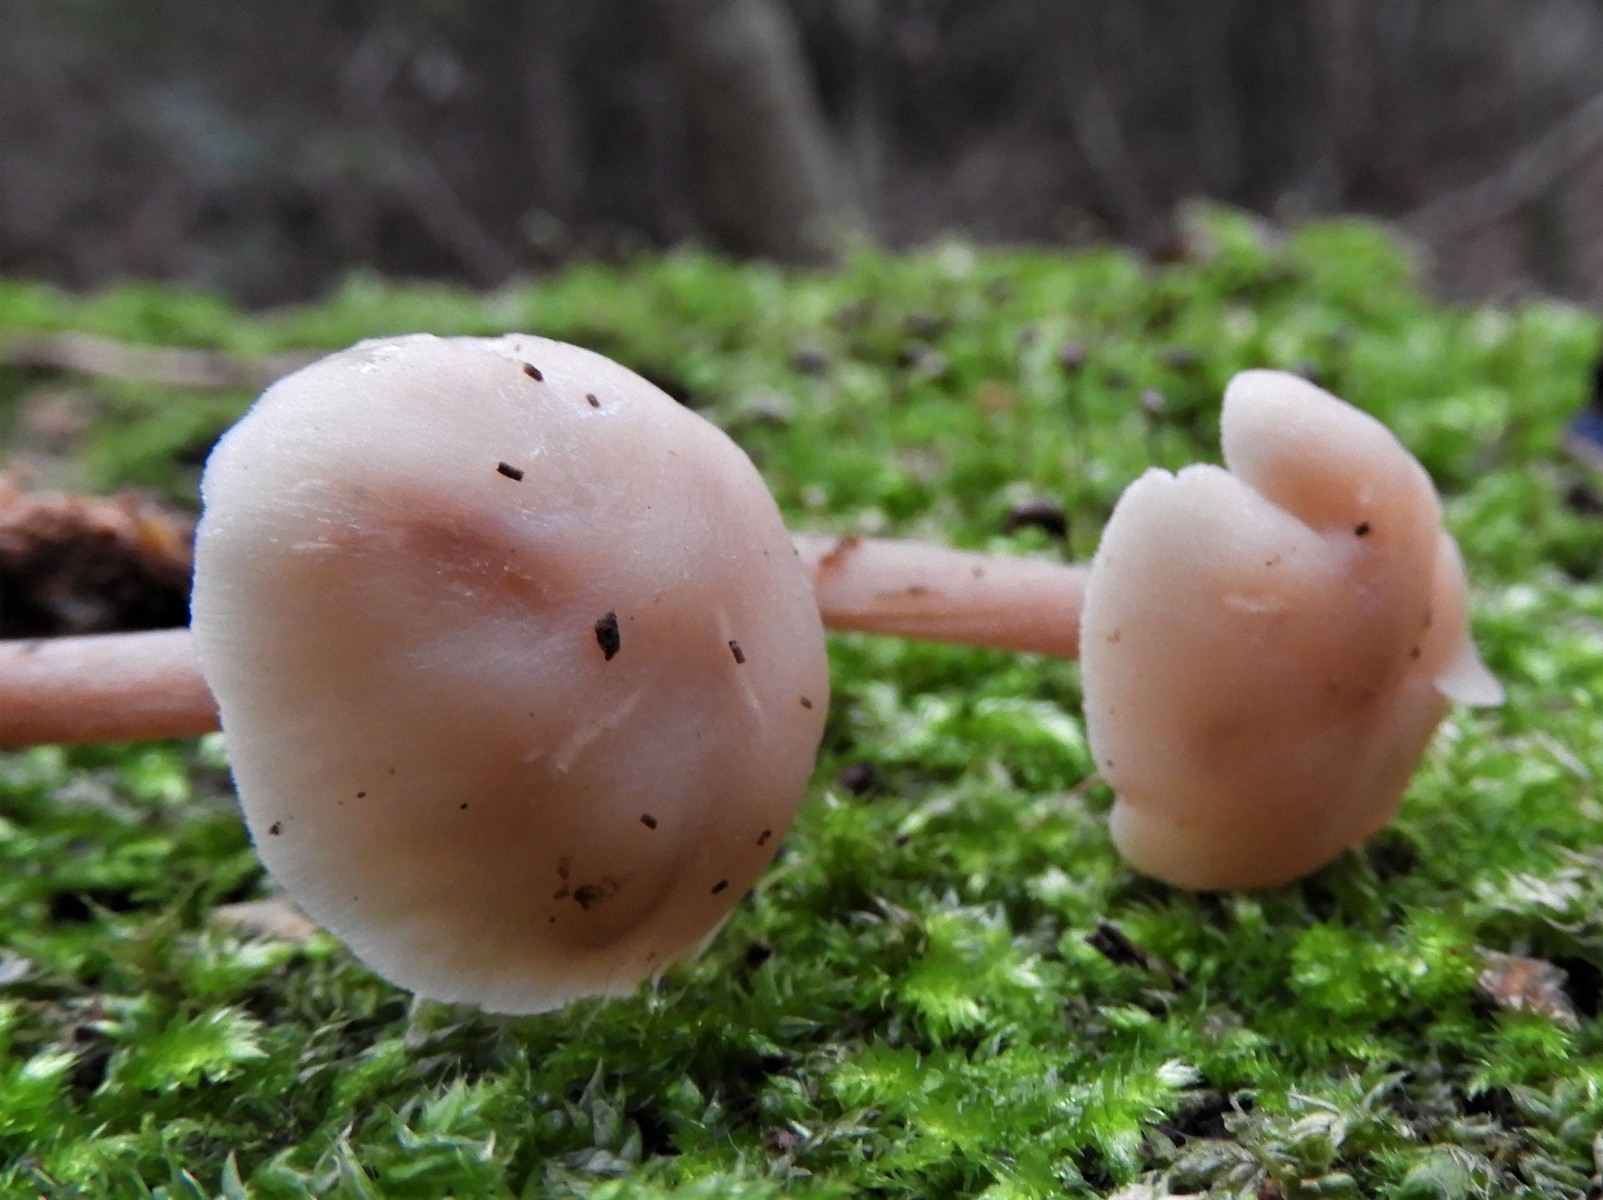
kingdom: Fungi
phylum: Basidiomycota
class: Agaricomycetes
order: Agaricales
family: Omphalotaceae
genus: Collybiopsis
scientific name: Collybiopsis confluens
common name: knippe-fladhat
